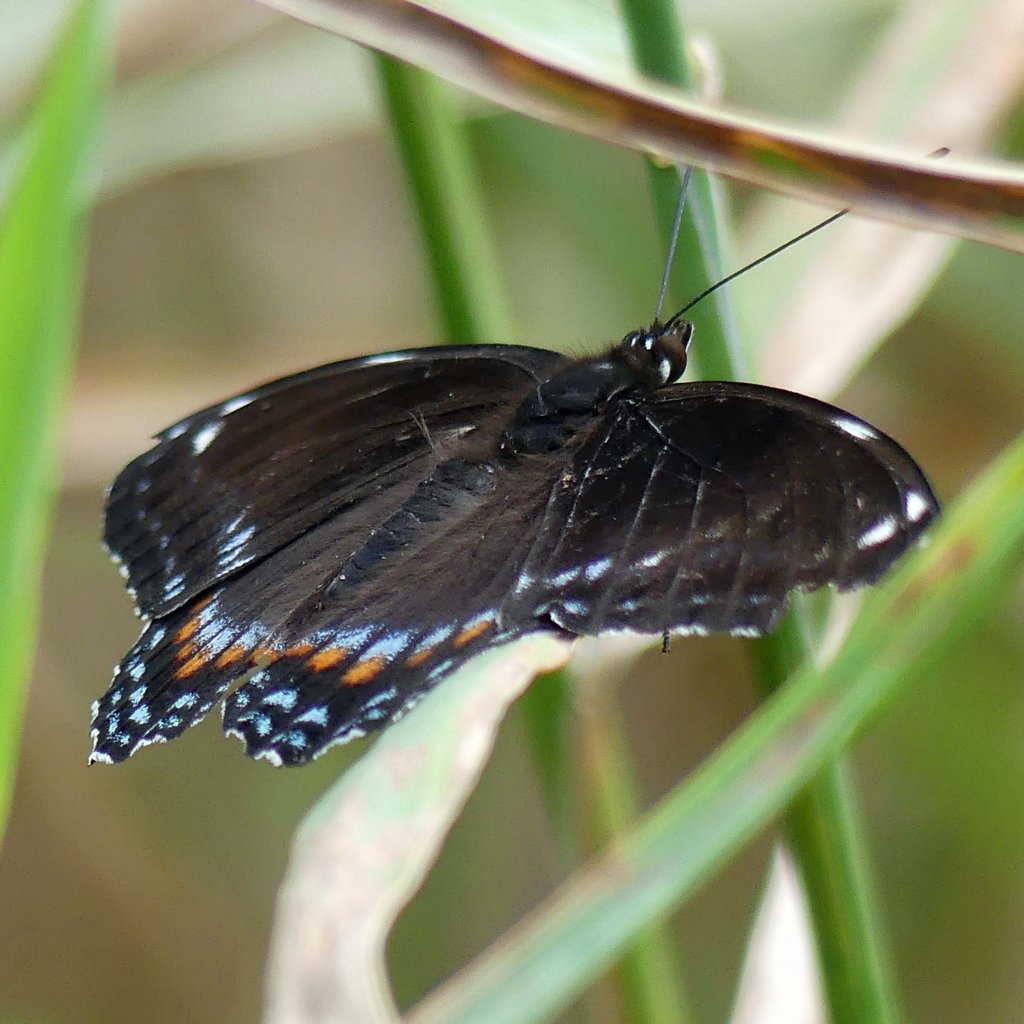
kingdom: Animalia
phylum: Arthropoda
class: Insecta
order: Lepidoptera
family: Nymphalidae
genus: Limenitis
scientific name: Limenitis
